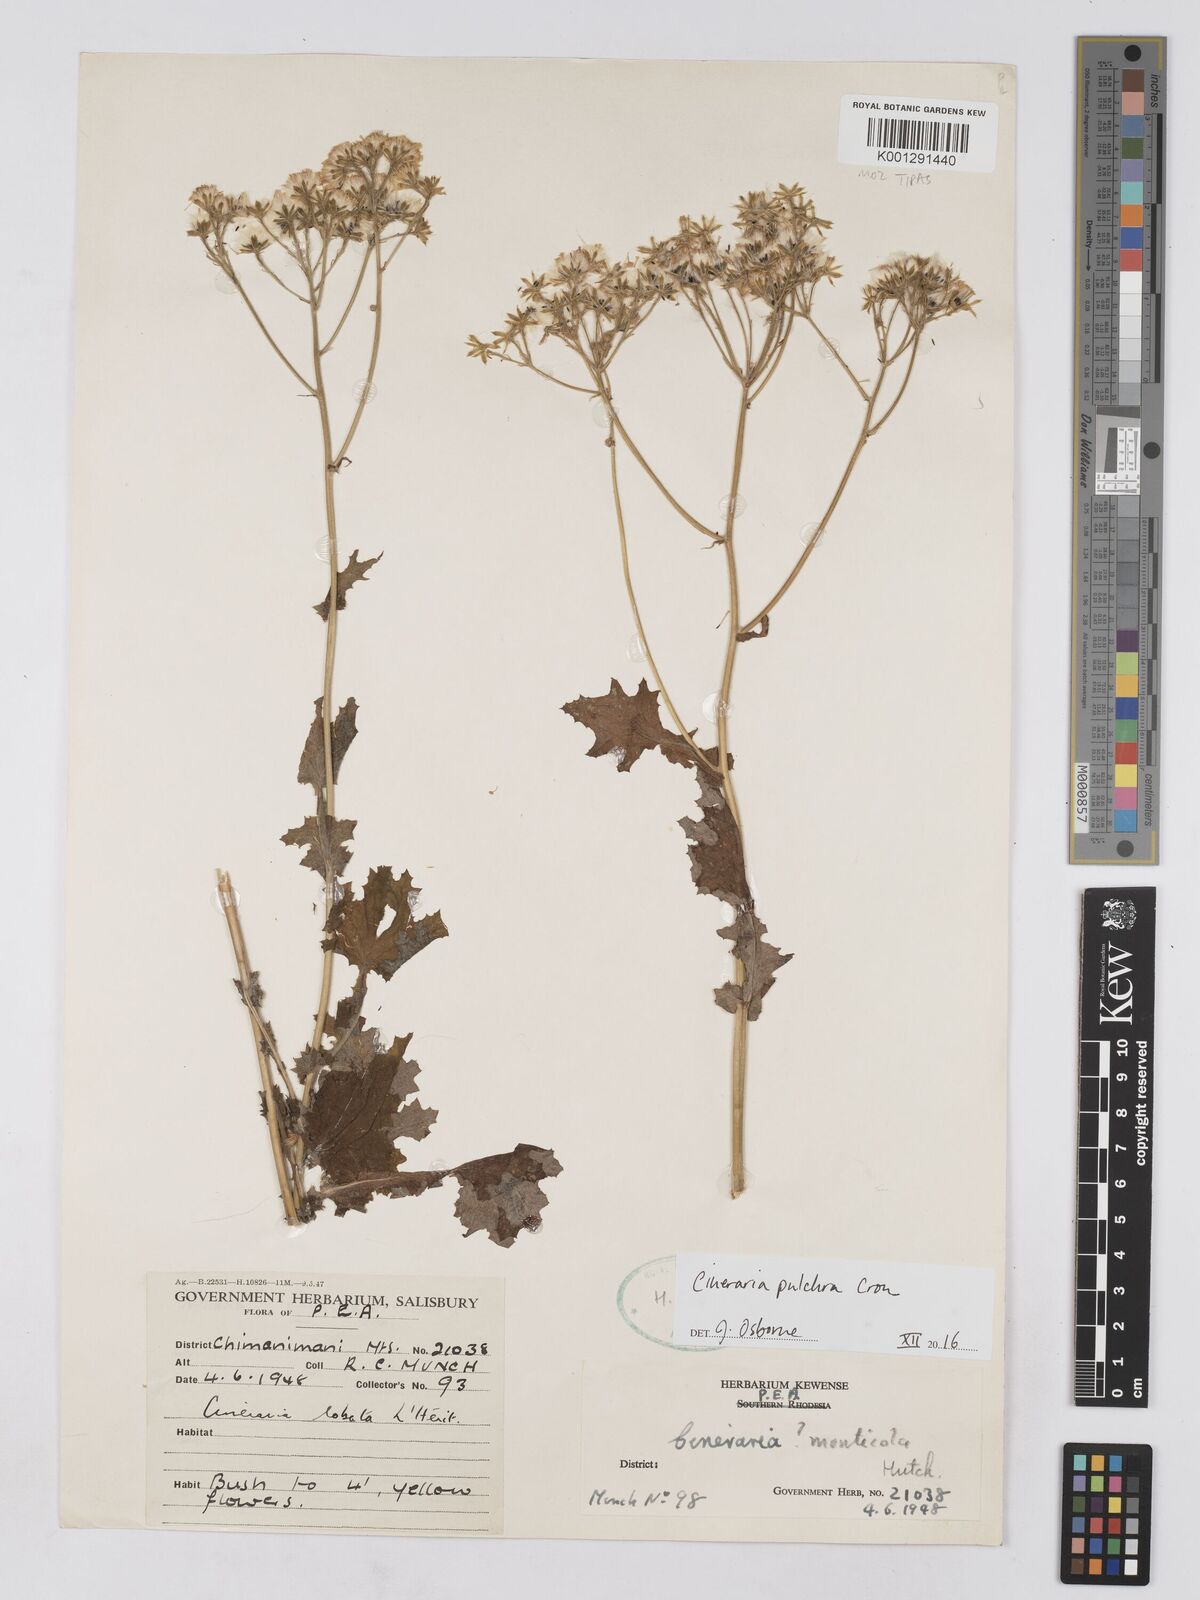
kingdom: Plantae
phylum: Tracheophyta
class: Magnoliopsida
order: Asterales
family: Asteraceae
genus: Cineraria
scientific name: Cineraria pulchra
